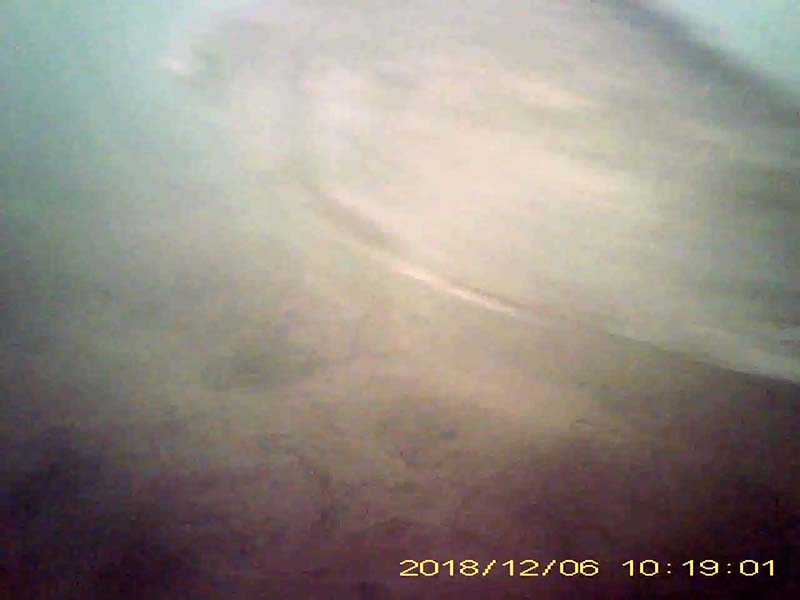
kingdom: Animalia
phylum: Chordata
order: Cypriniformes
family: Cyprinidae
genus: Carassius
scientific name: Carassius
